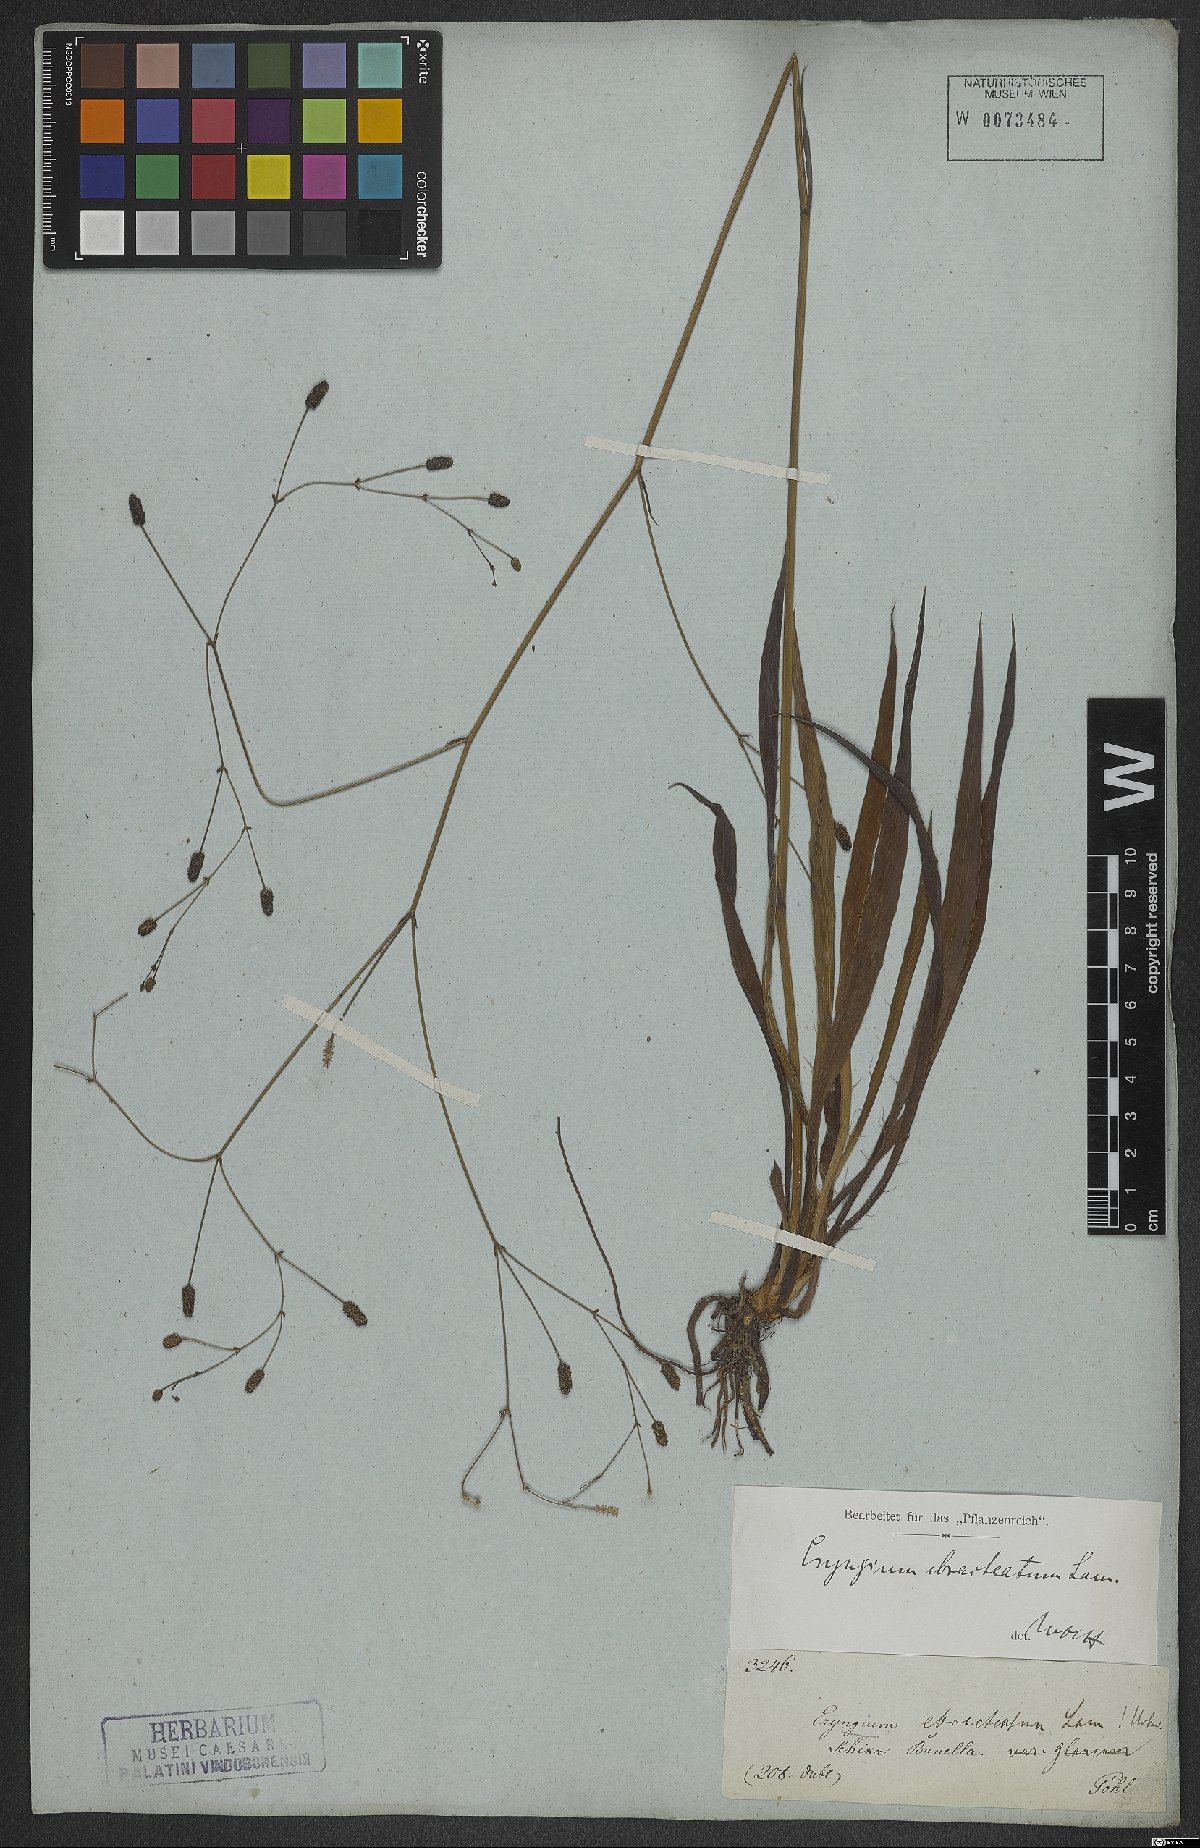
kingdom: Plantae
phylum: Tracheophyta
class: Magnoliopsida
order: Apiales
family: Apiaceae
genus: Eryngium
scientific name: Eryngium ebracteatum
